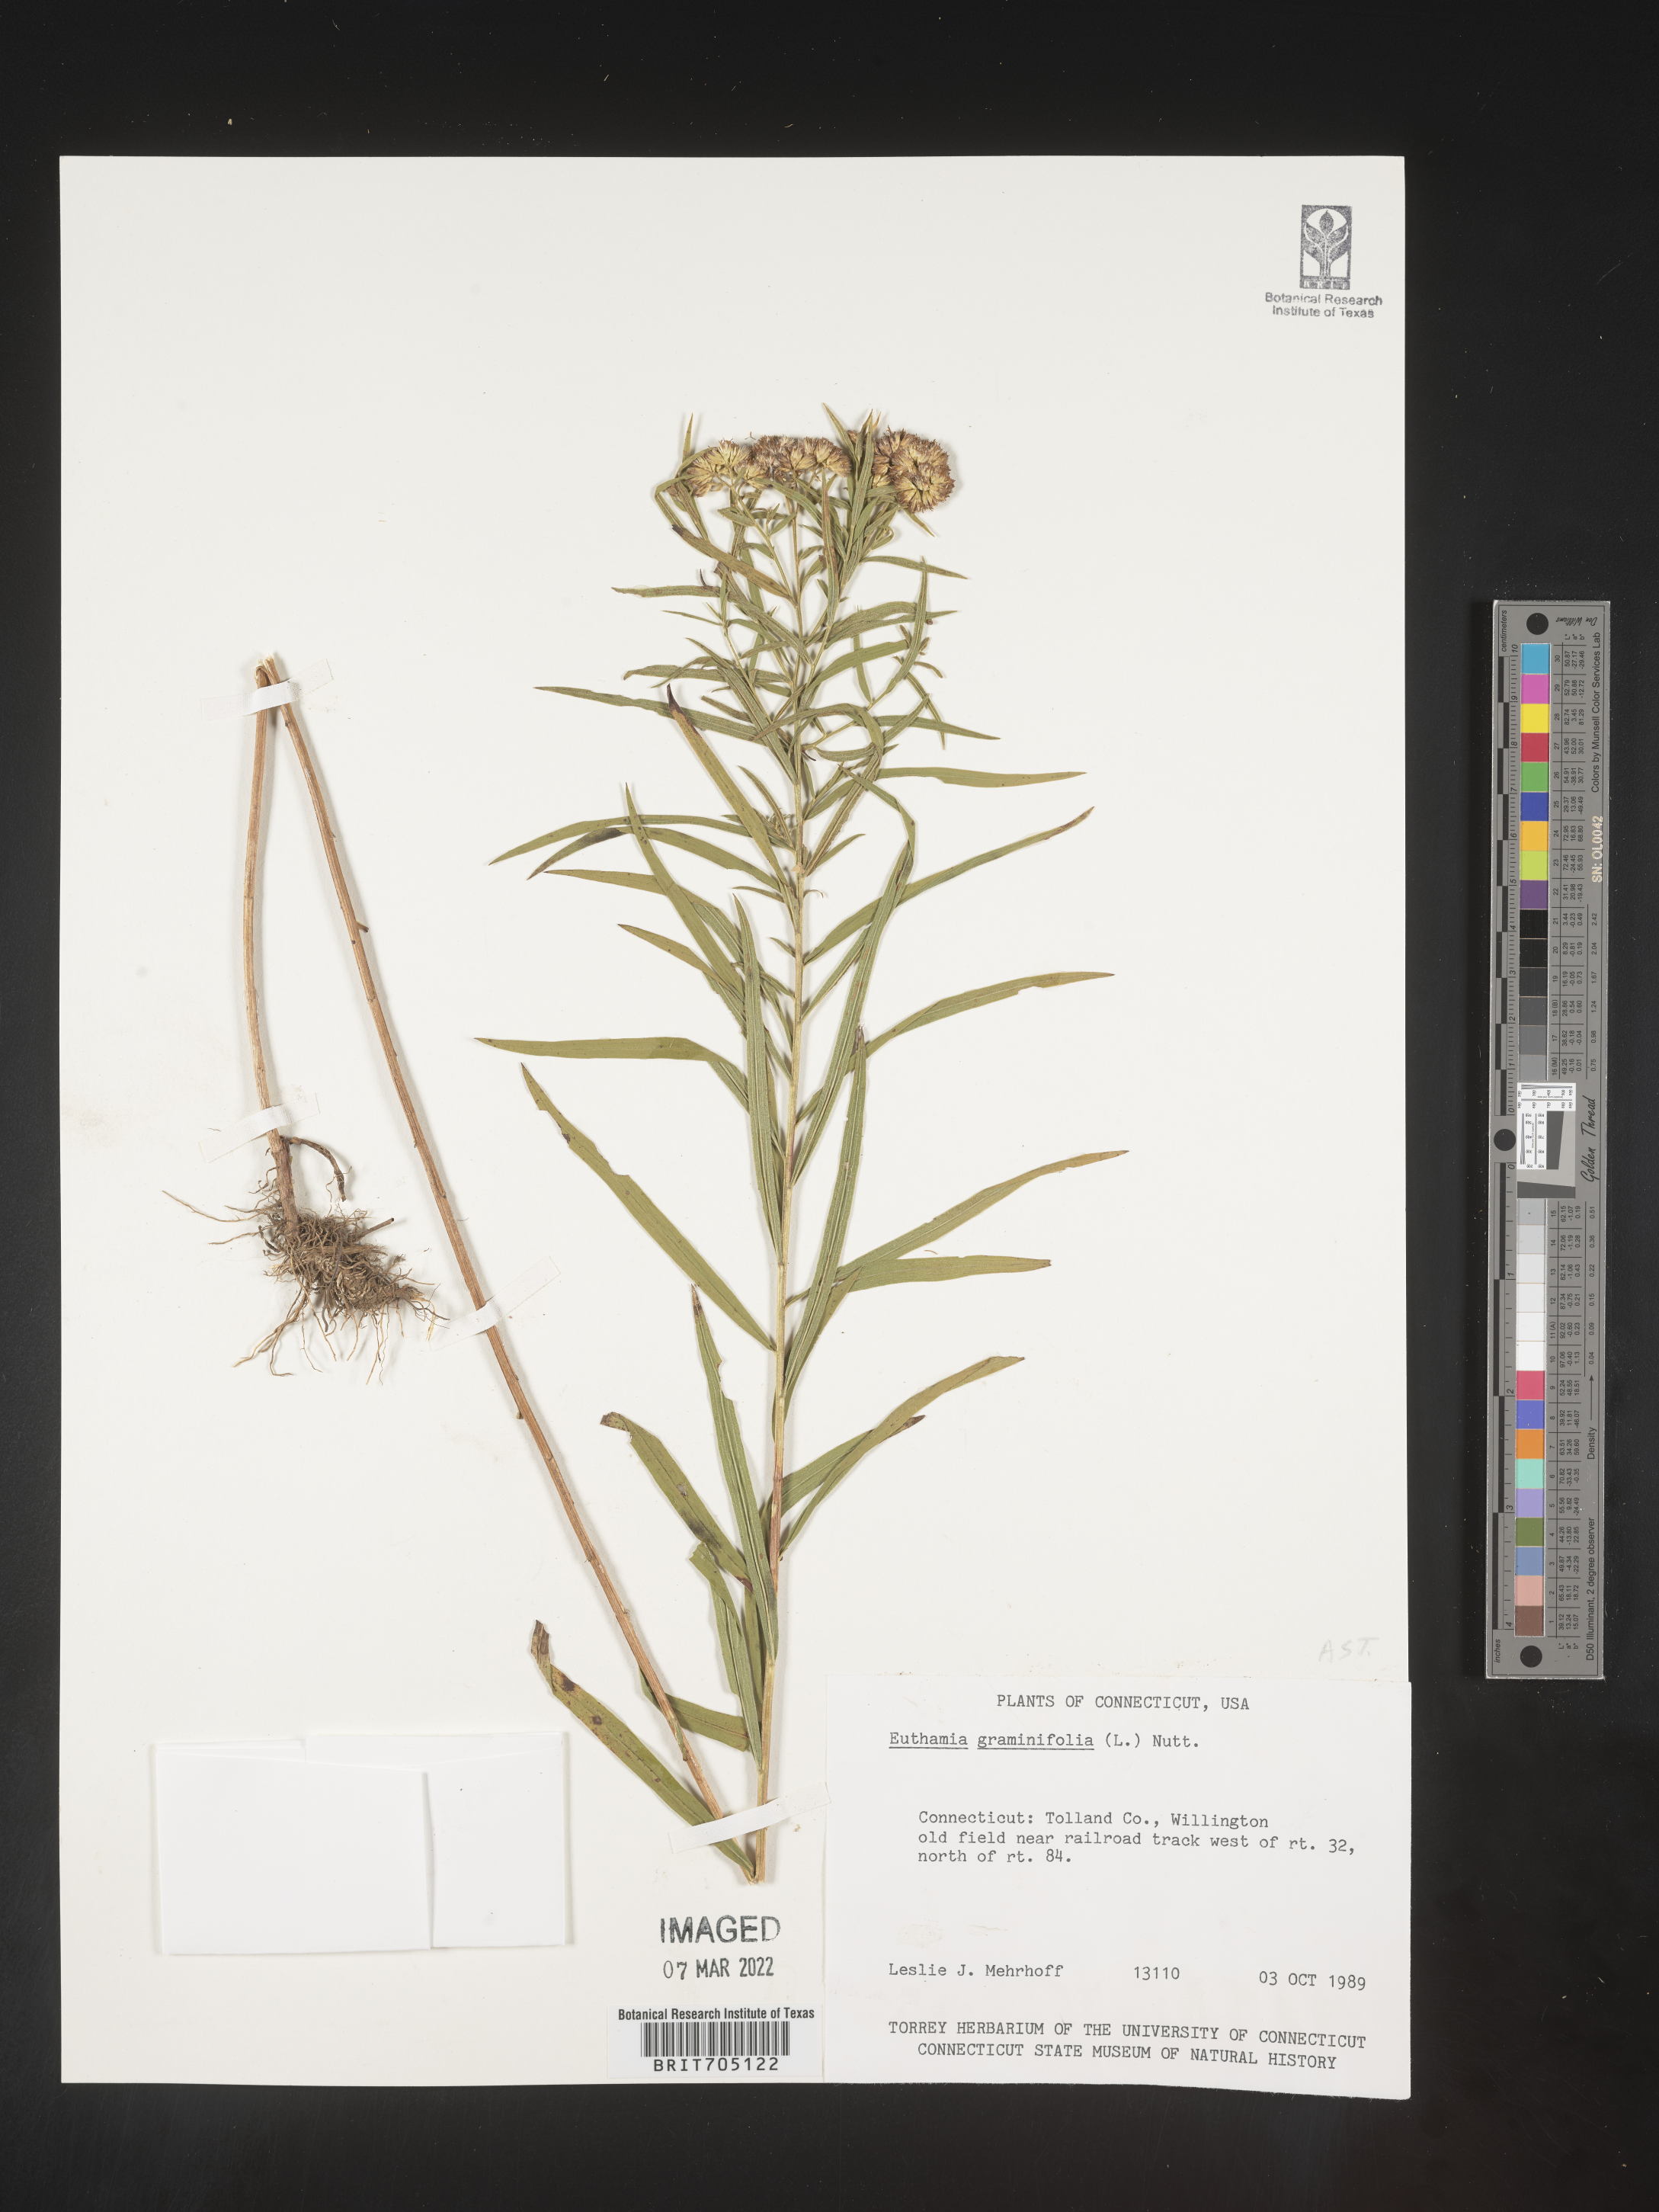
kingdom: Plantae
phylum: Tracheophyta
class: Magnoliopsida
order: Asterales
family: Asteraceae
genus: Euthamia
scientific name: Euthamia graminifolia
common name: Common goldentop
